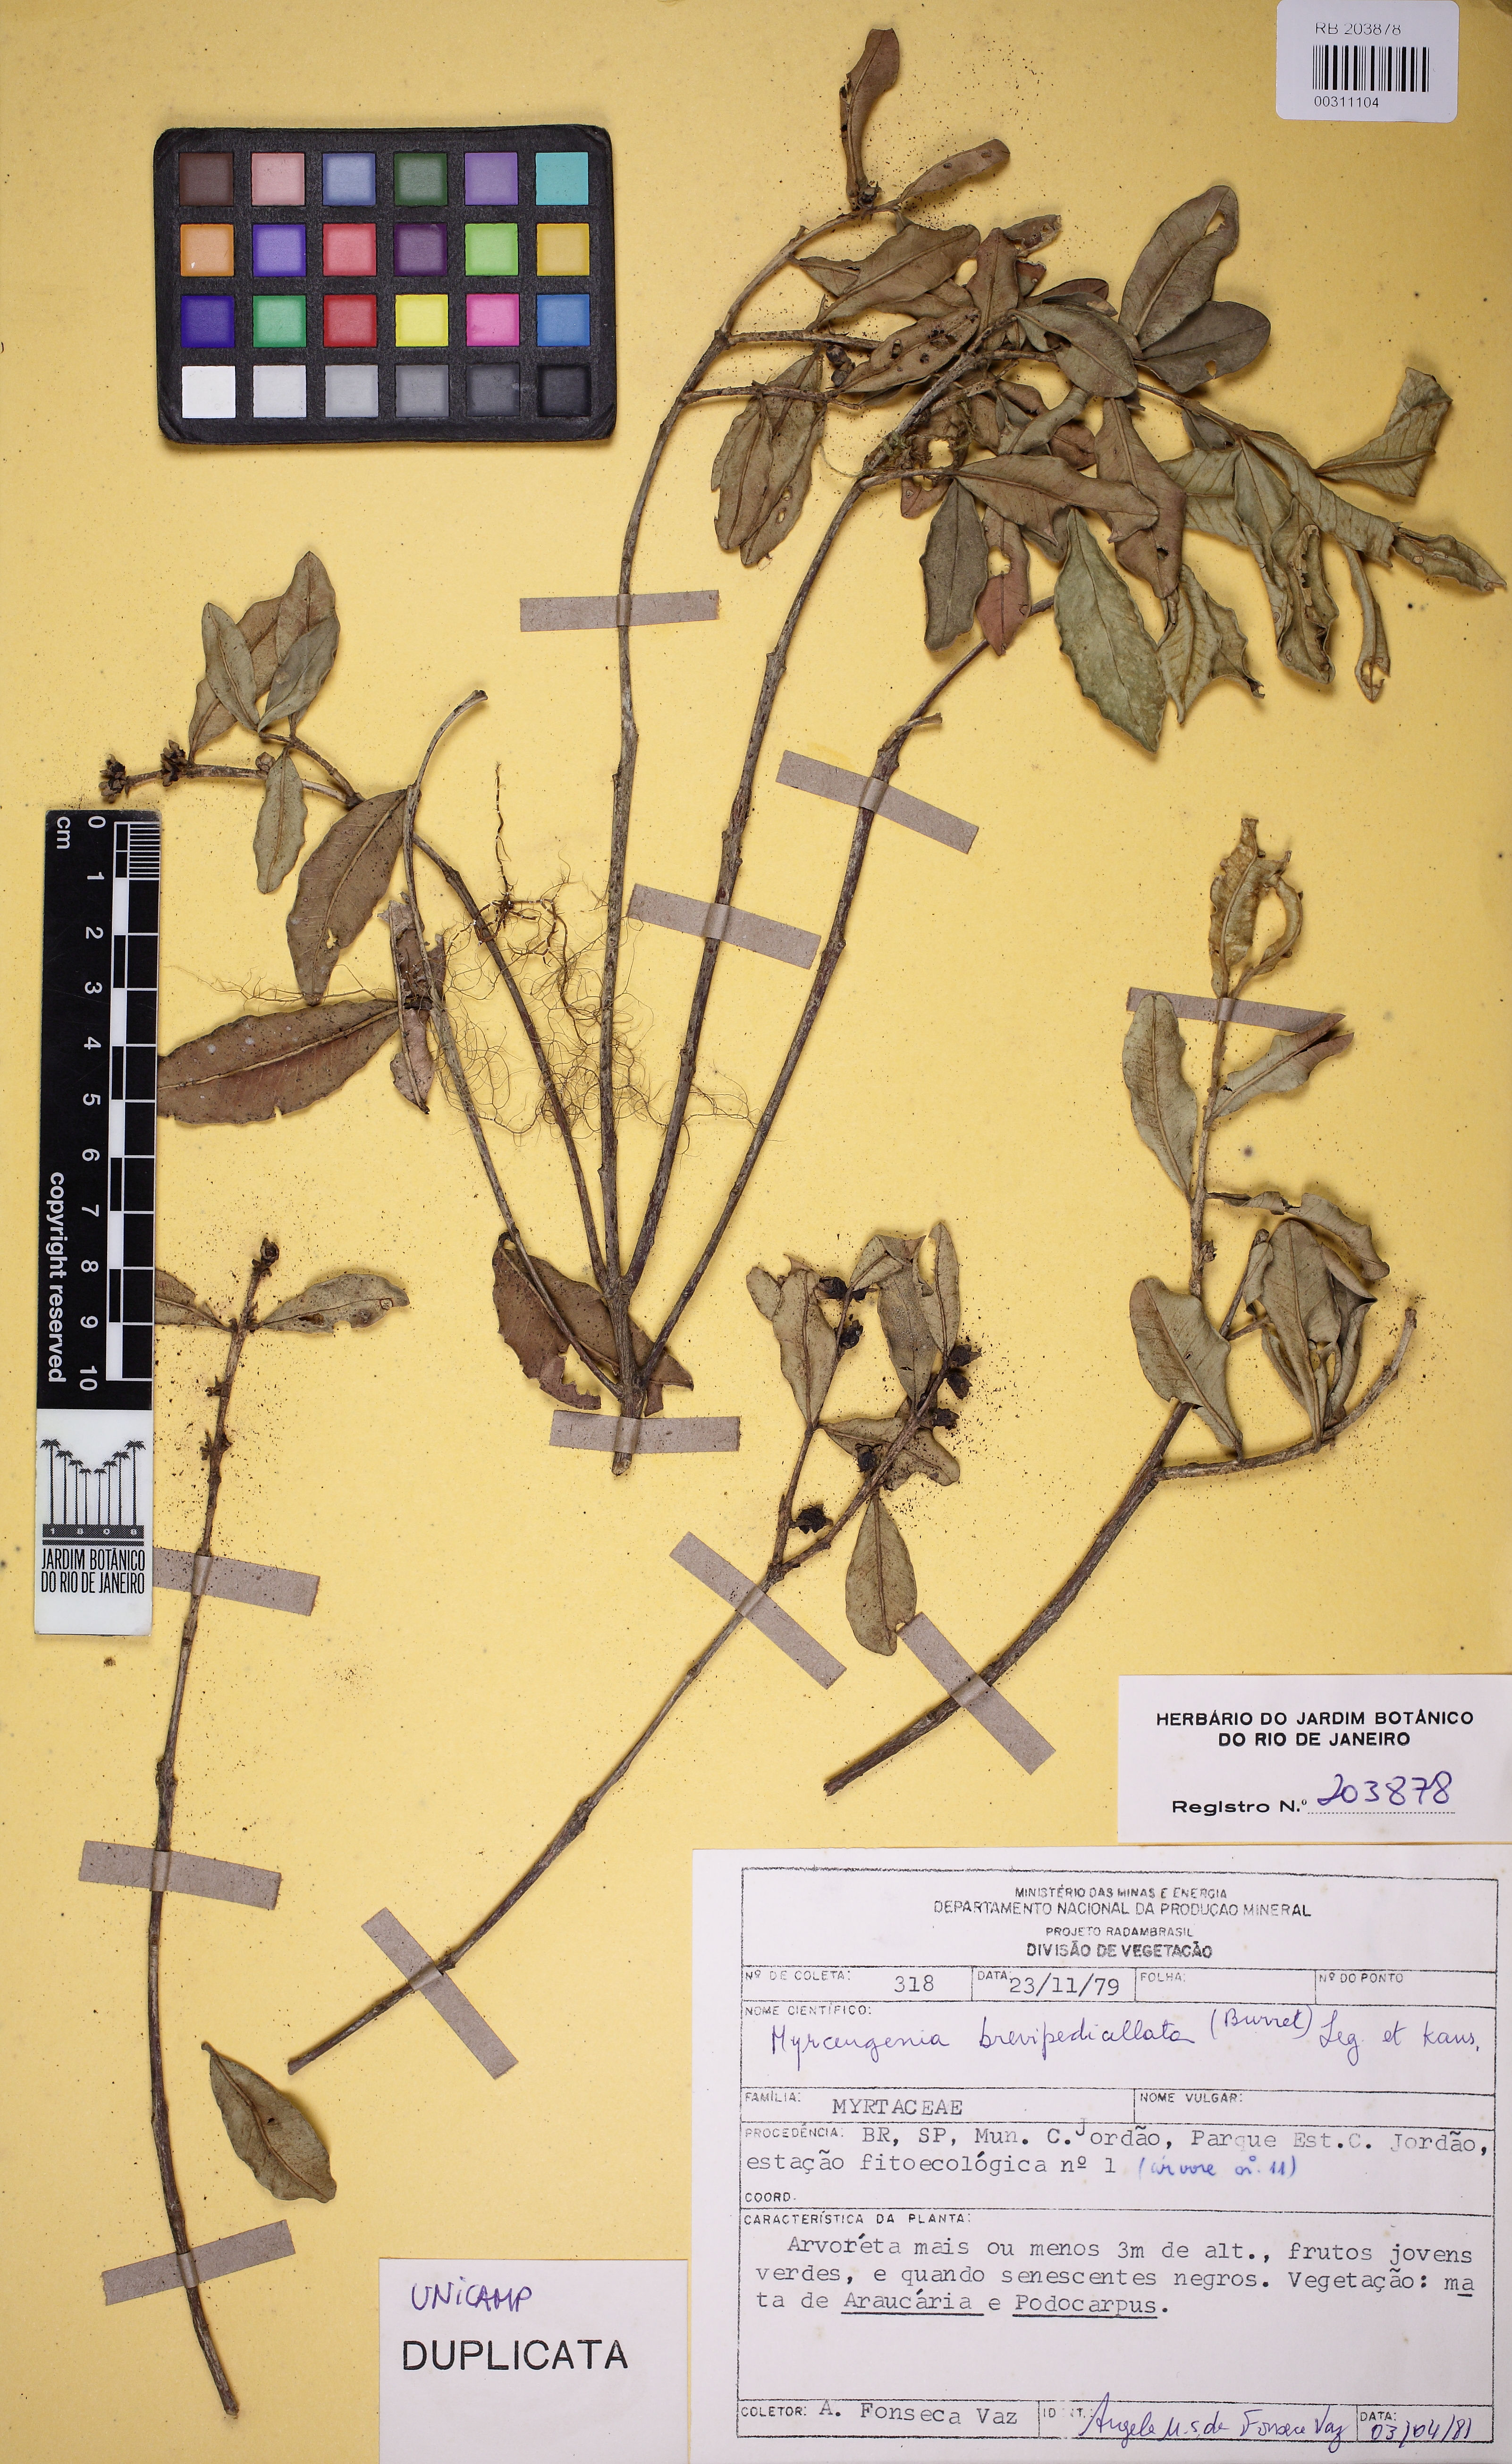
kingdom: Plantae
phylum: Tracheophyta
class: Magnoliopsida
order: Myrtales
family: Myrtaceae
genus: Myrceugenia
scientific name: Myrceugenia bracteosa
